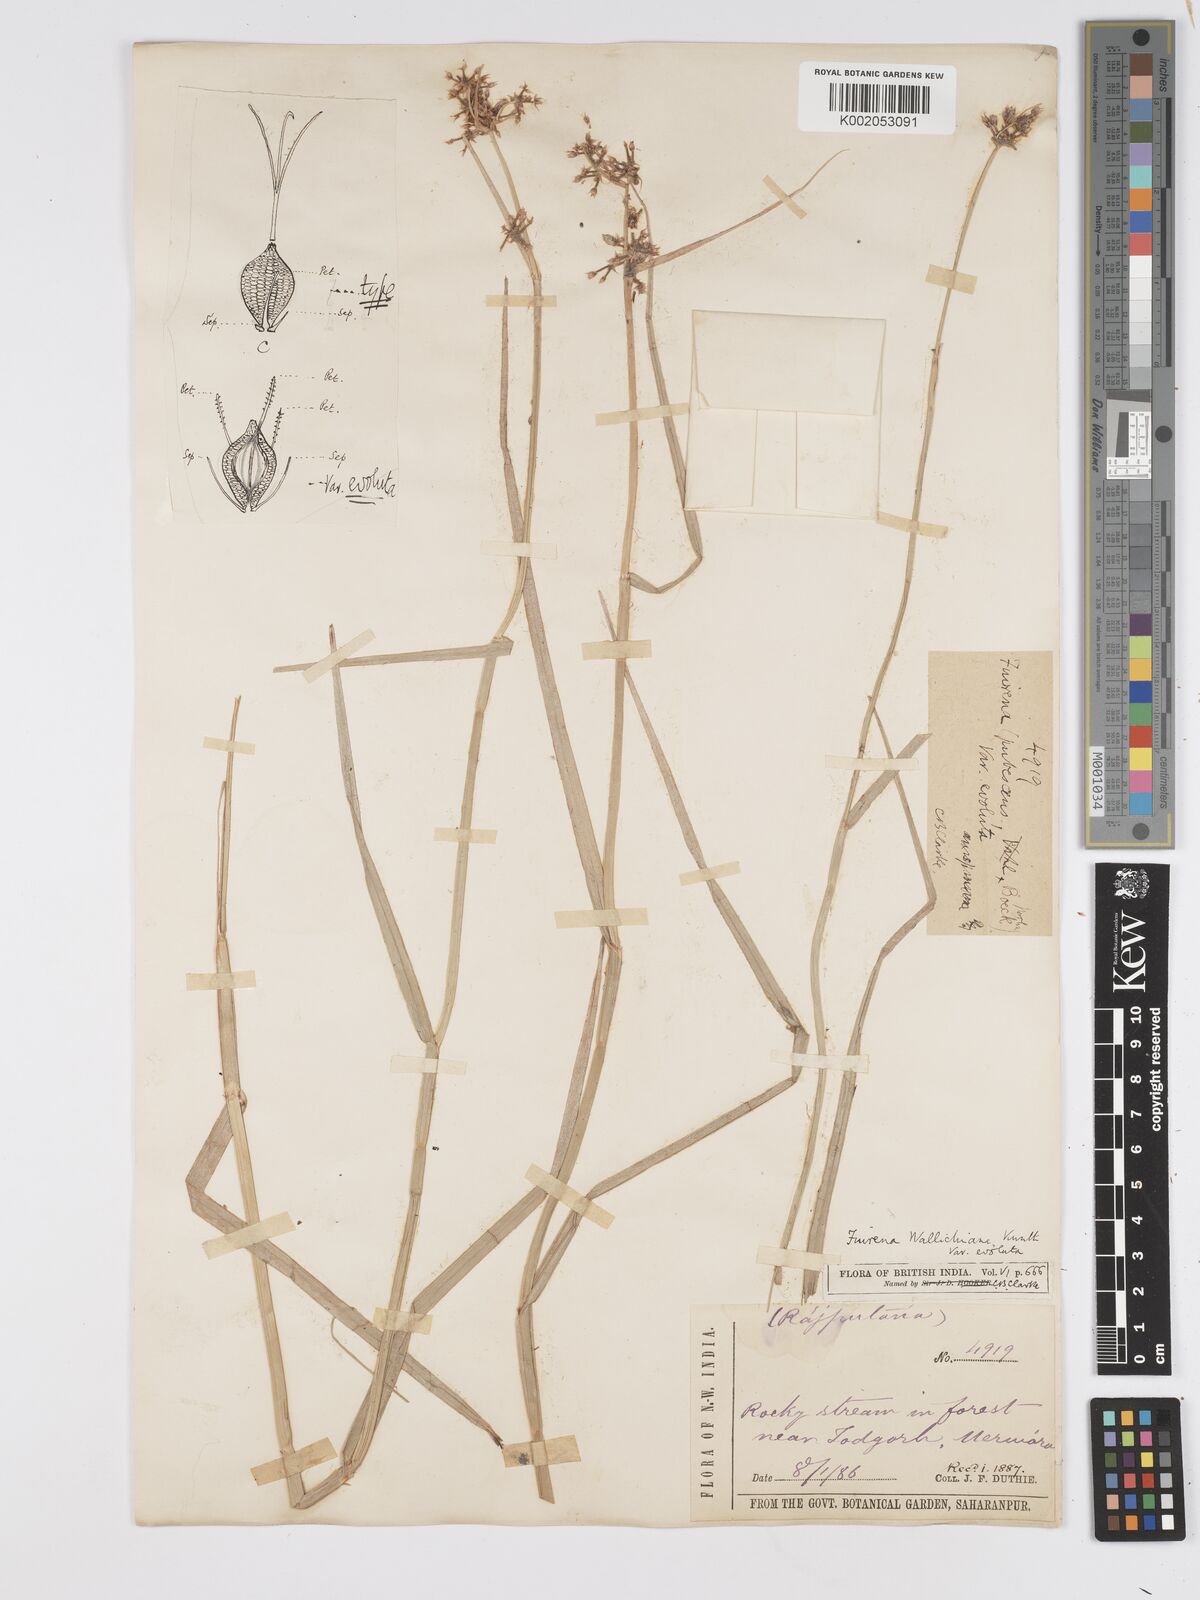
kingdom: Plantae
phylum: Tracheophyta
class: Liliopsida
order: Poales
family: Cyperaceae
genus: Fuirena
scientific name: Fuirena cuspidata
